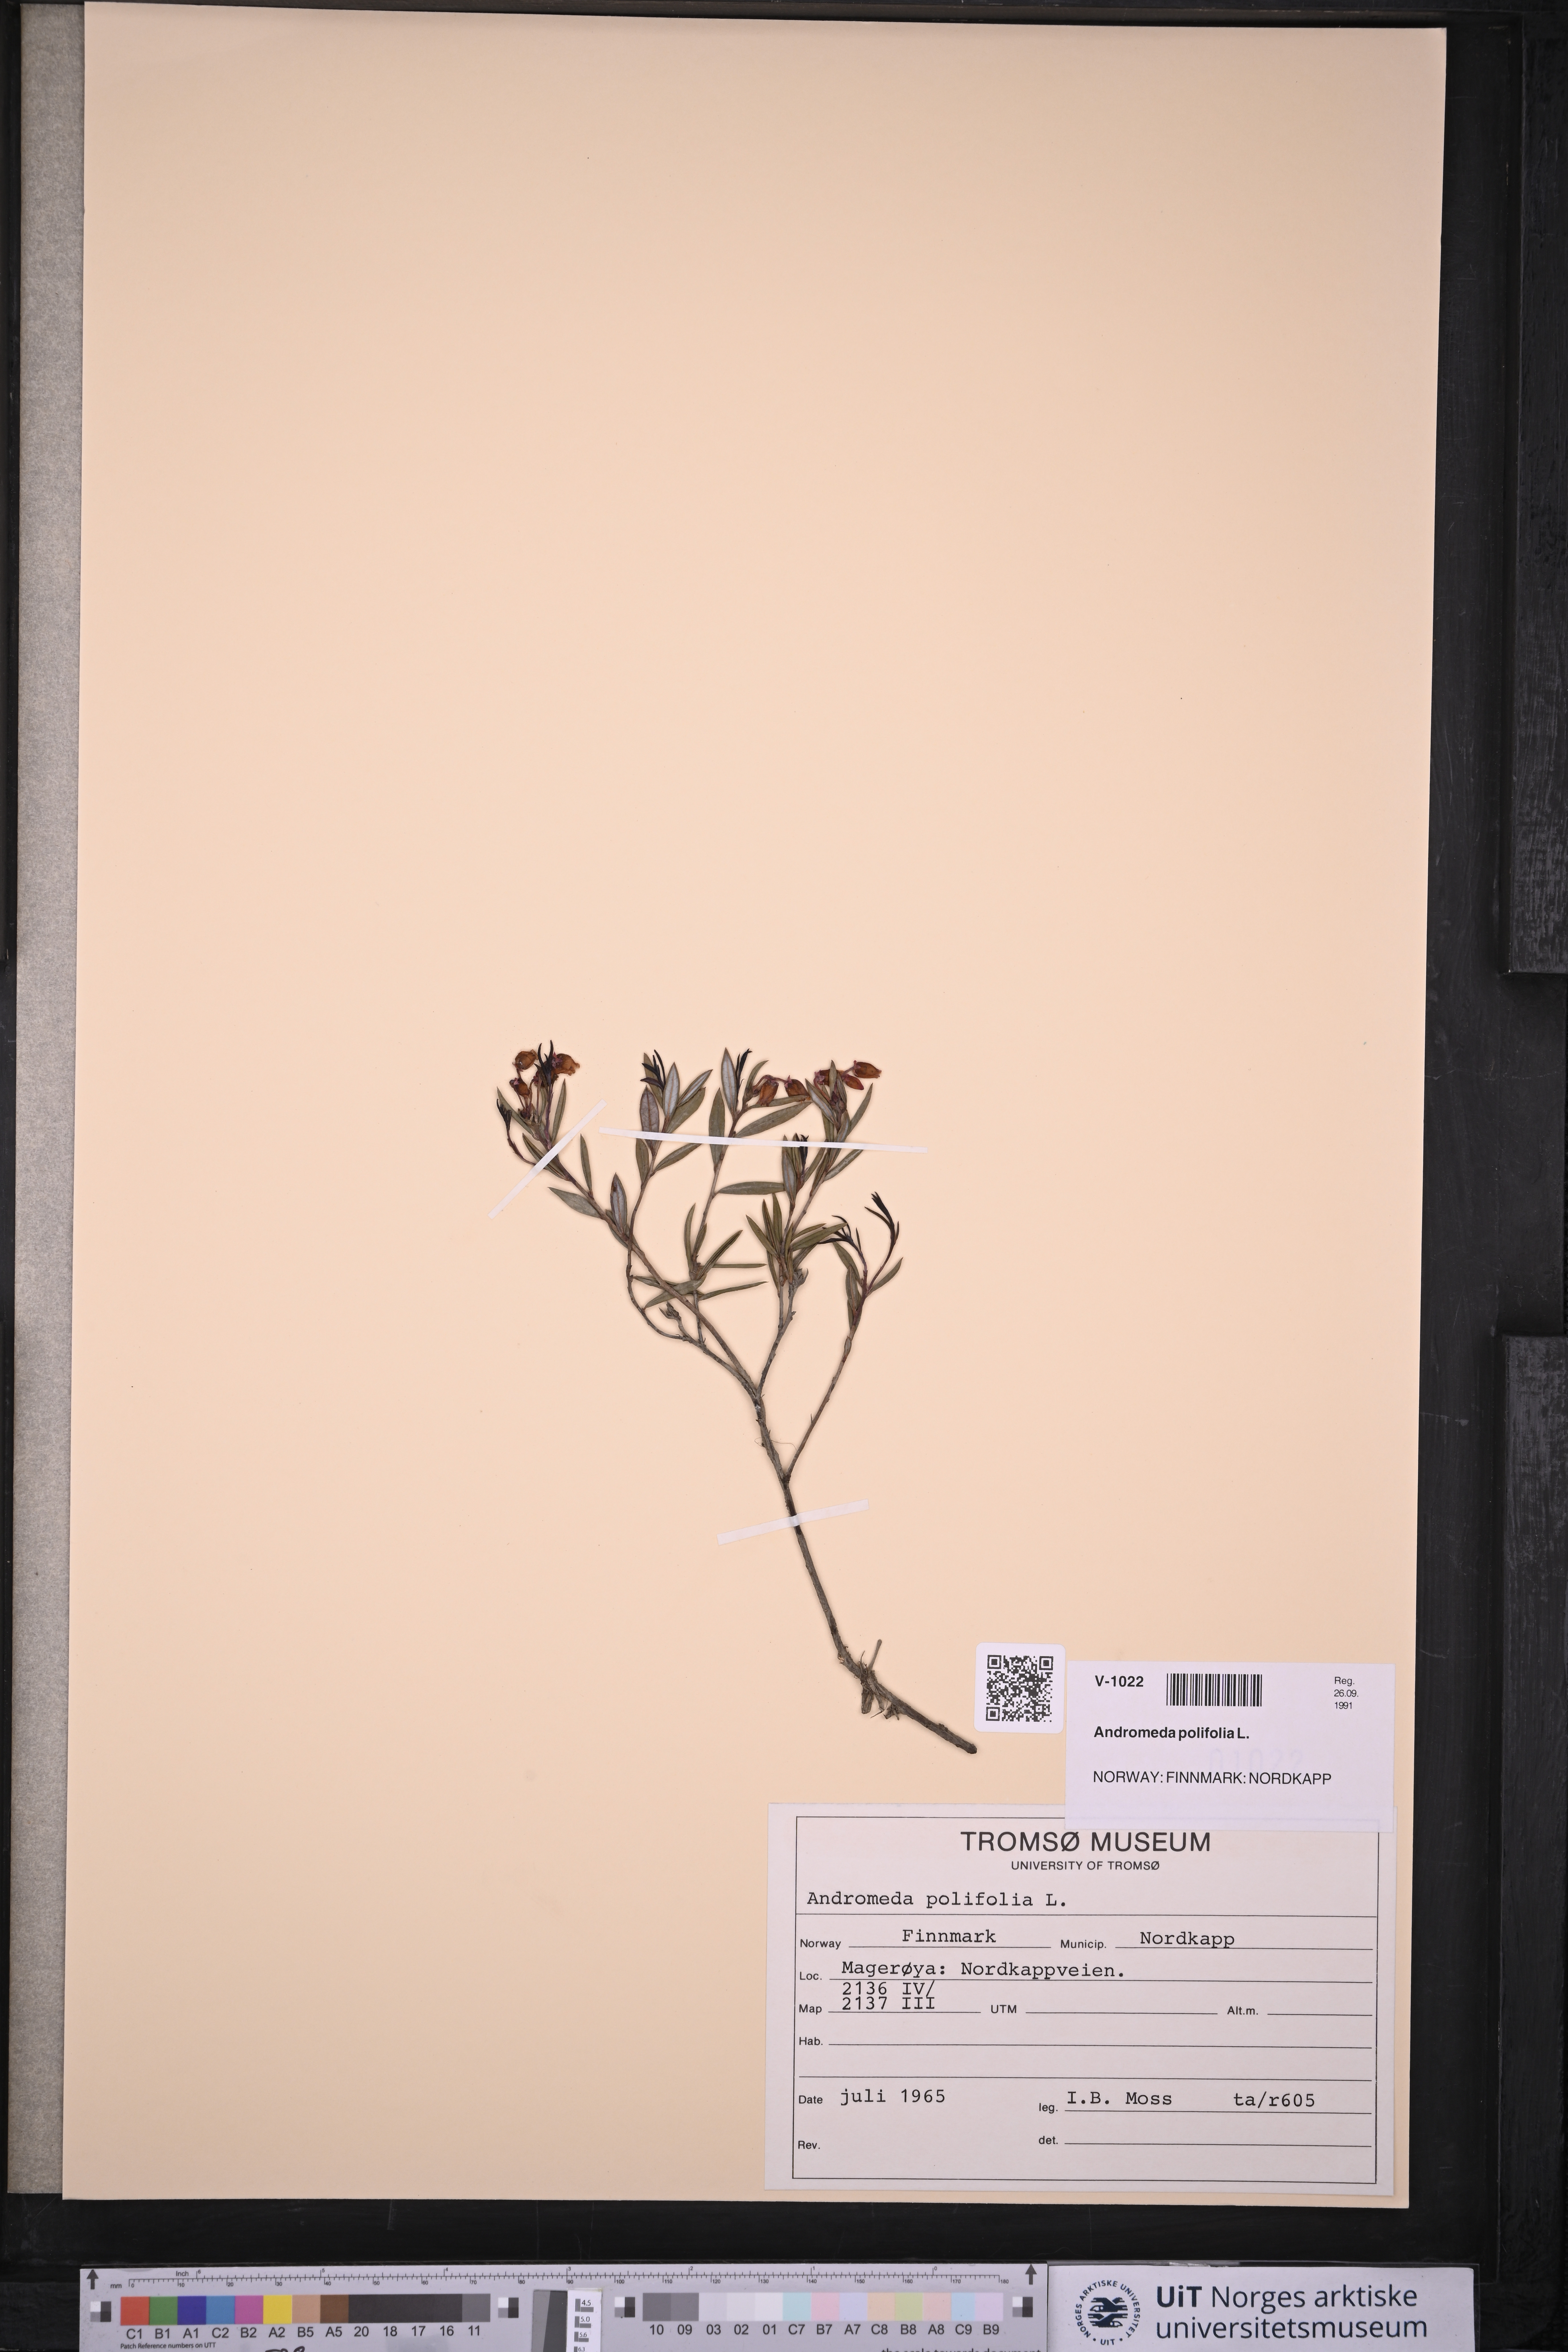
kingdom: Plantae
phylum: Tracheophyta
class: Magnoliopsida
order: Ericales
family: Ericaceae
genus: Andromeda
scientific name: Andromeda polifolia
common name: Bog-rosemary
